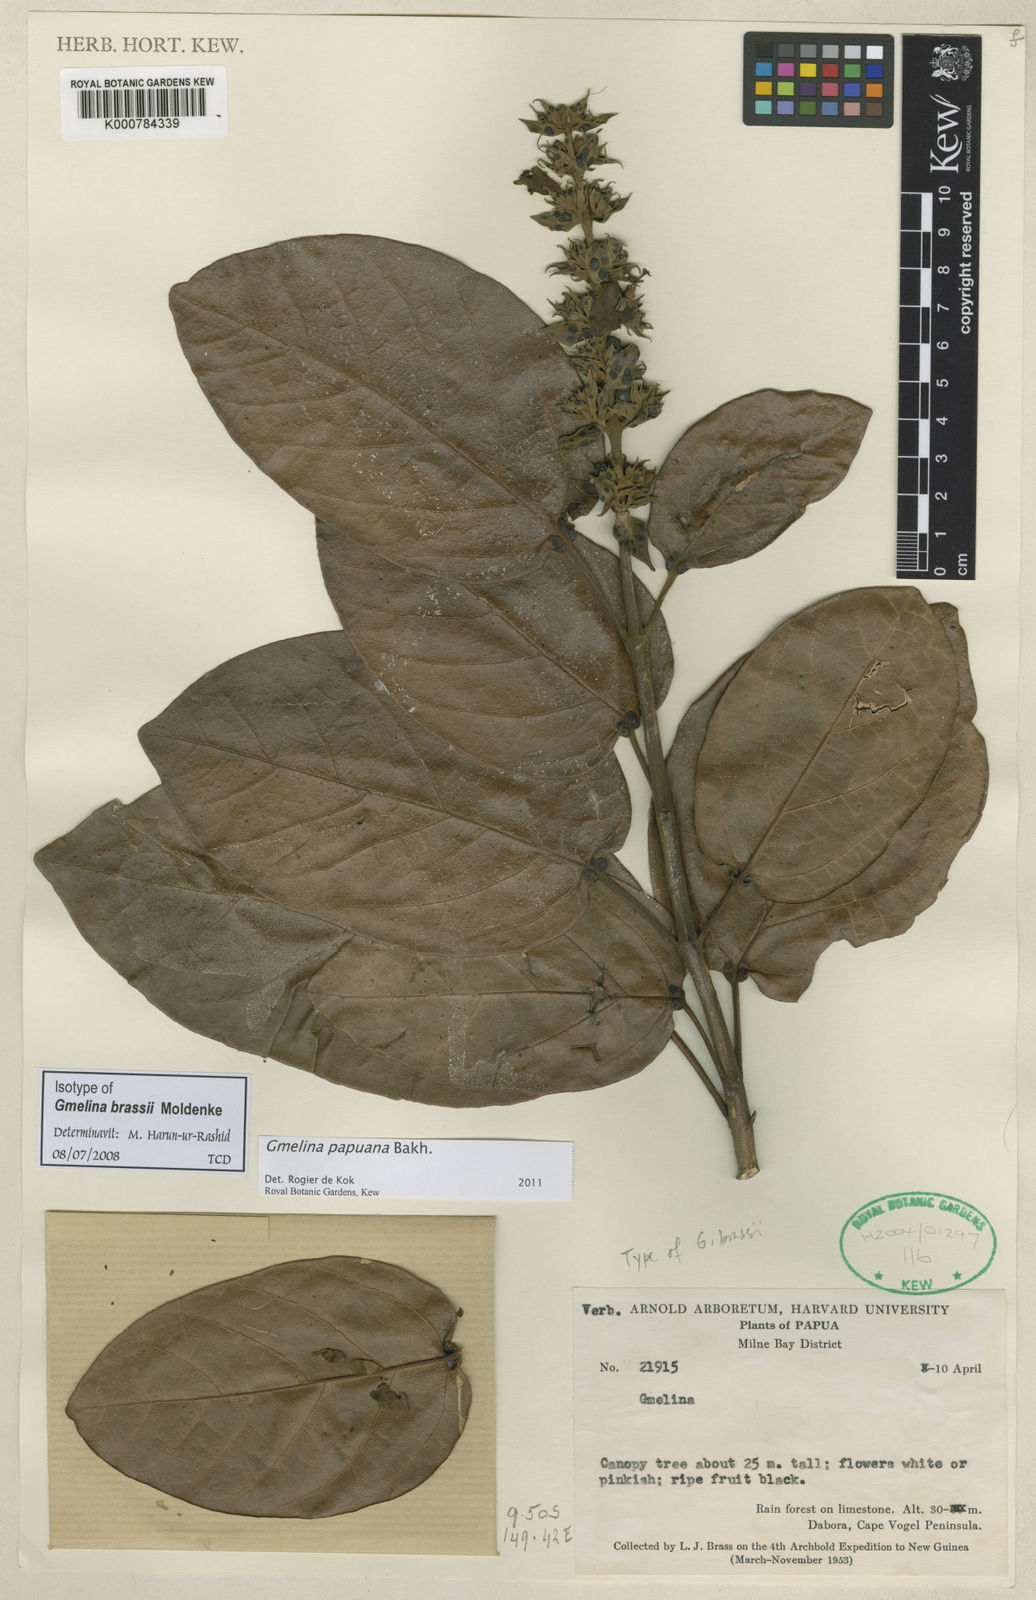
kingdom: Plantae
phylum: Tracheophyta
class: Magnoliopsida
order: Lamiales
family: Lamiaceae
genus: Gmelina
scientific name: Gmelina papuana
